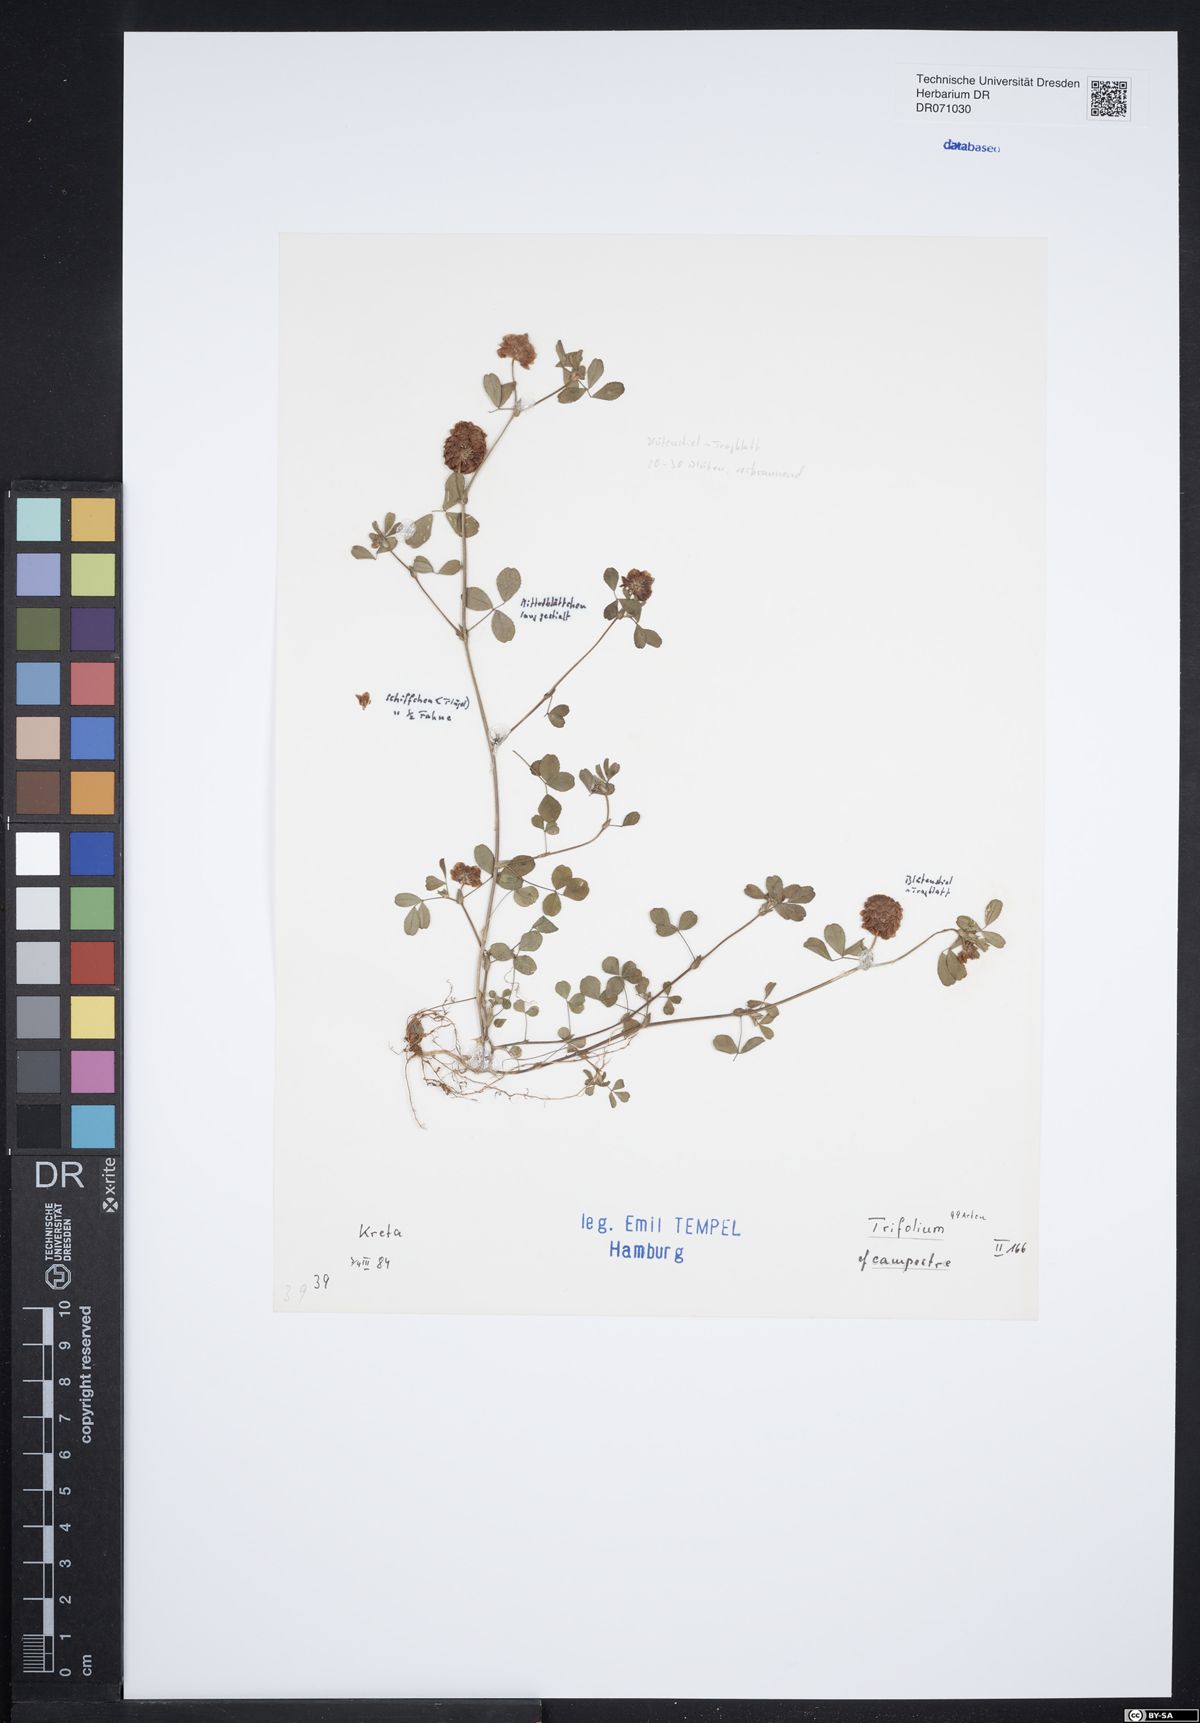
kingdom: Plantae
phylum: Tracheophyta
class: Magnoliopsida
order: Fabales
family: Fabaceae
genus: Trifolium
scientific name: Trifolium campestre
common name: Field clover
